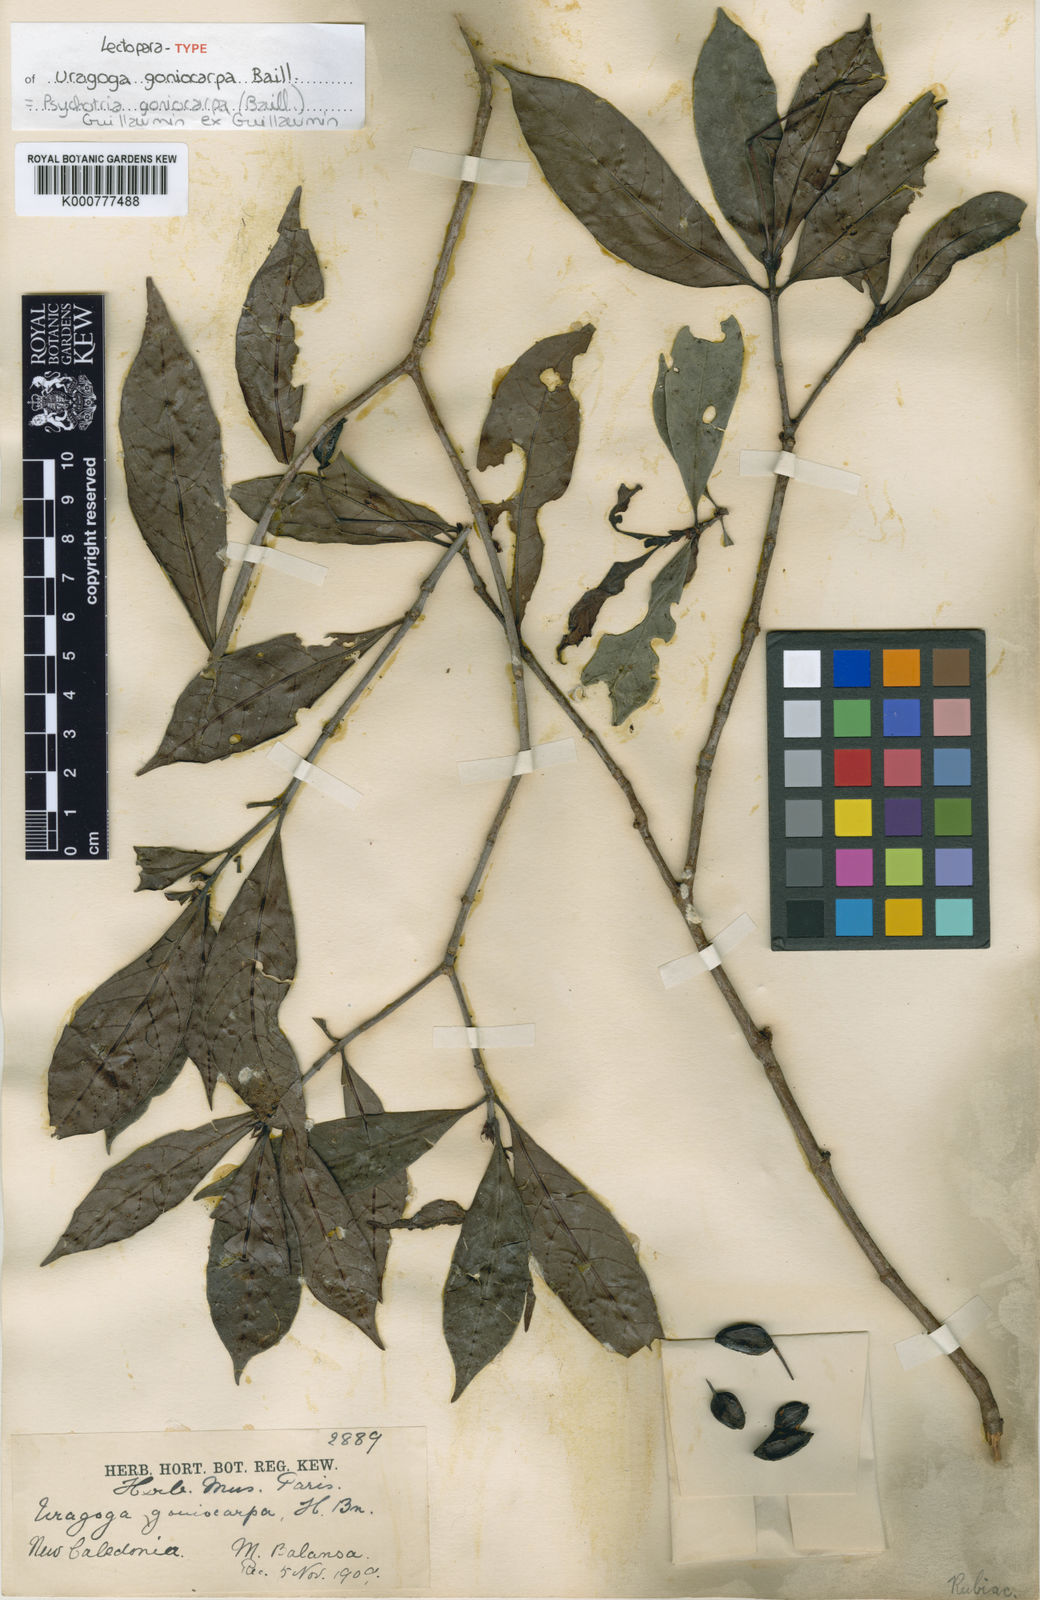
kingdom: Plantae
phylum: Tracheophyta
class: Magnoliopsida
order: Gentianales
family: Rubiaceae
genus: Psychotria
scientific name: Psychotria goniocarpa
